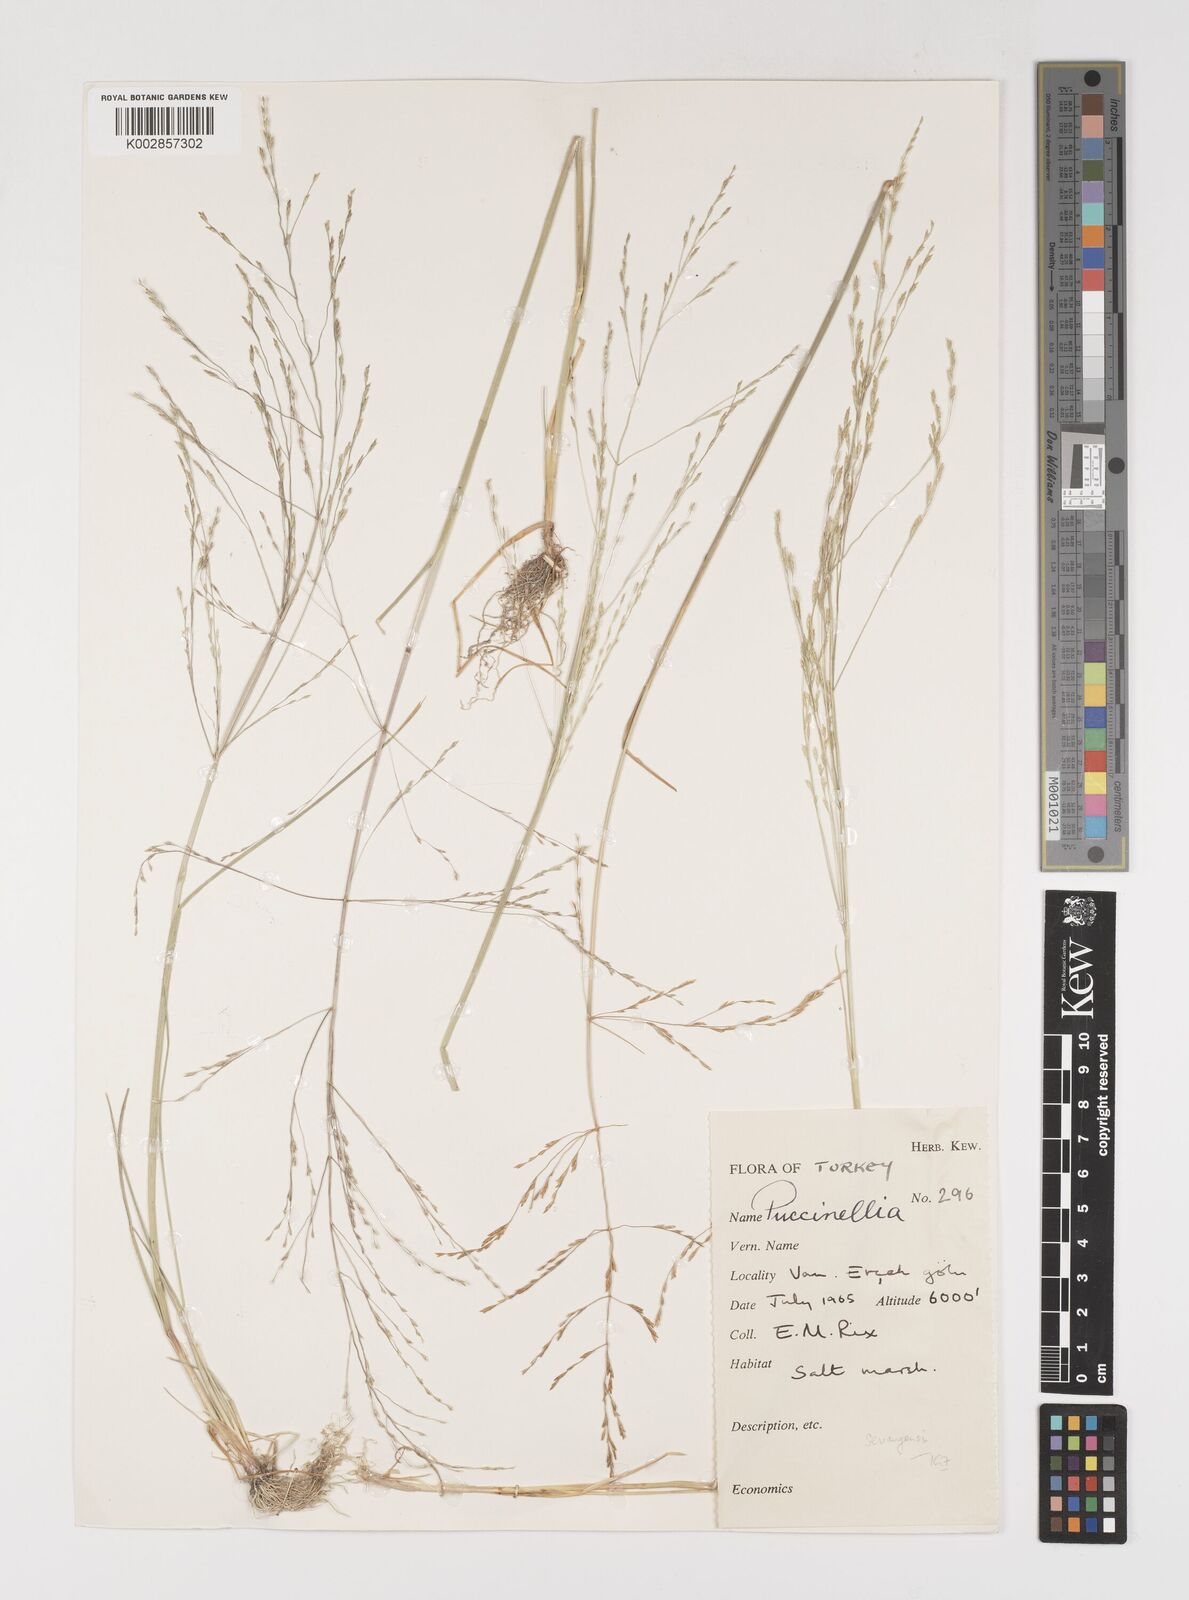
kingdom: Plantae
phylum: Tracheophyta
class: Liliopsida
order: Poales
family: Poaceae
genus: Puccinellia
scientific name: Puccinellia
